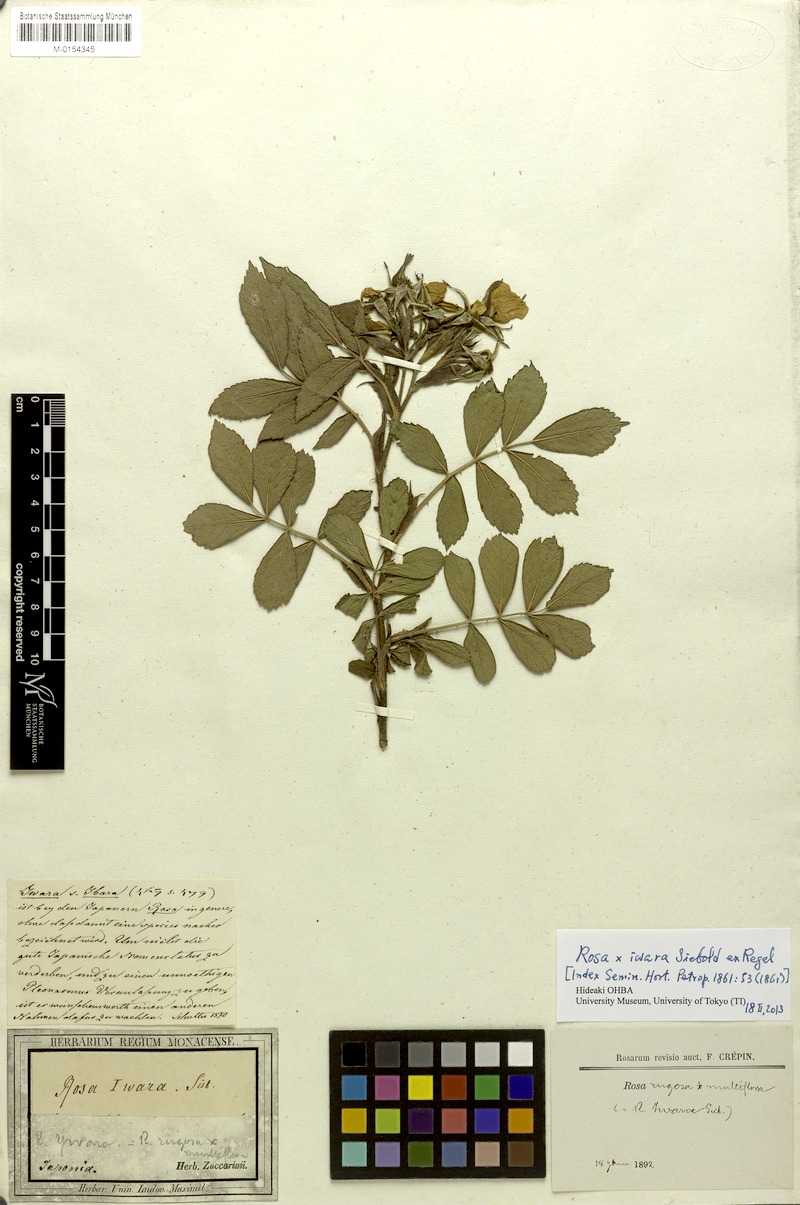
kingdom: Plantae
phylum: Tracheophyta
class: Magnoliopsida
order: Rosales
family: Rosaceae
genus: Rosa
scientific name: Rosa iwara
